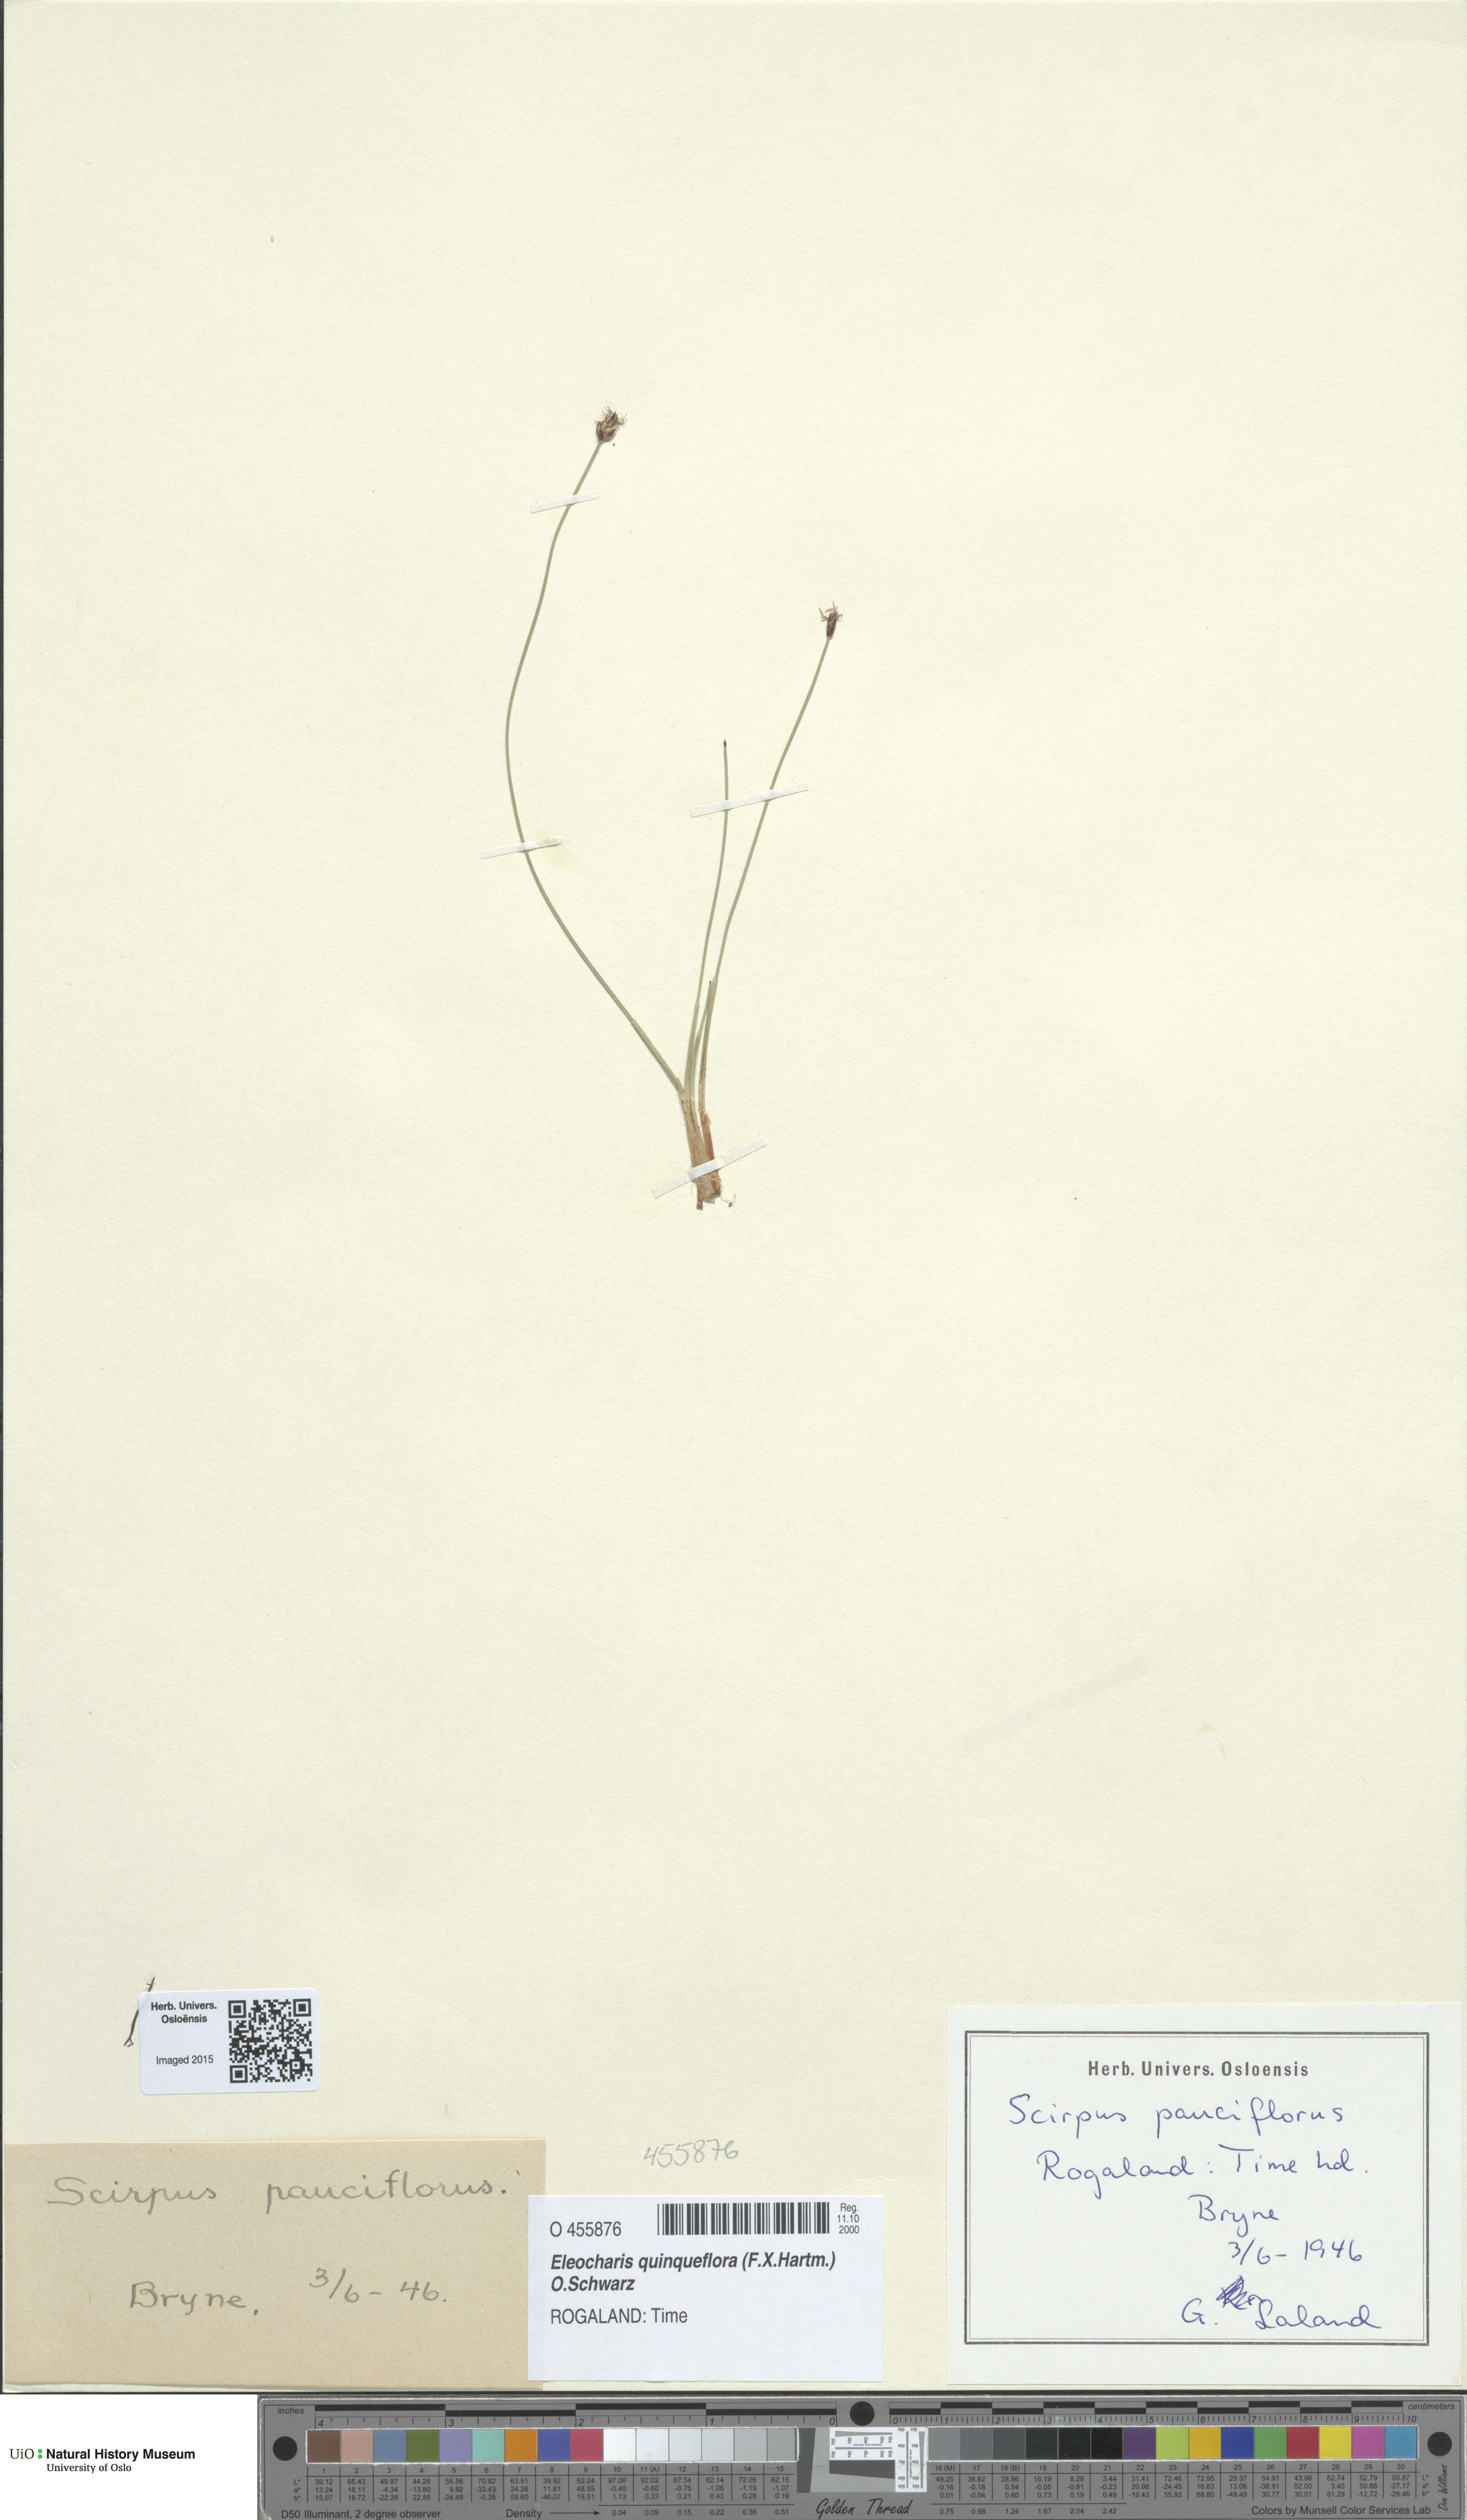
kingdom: Plantae
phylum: Tracheophyta
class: Liliopsida
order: Poales
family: Cyperaceae
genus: Eleocharis
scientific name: Eleocharis quinqueflora
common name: Few-flowered spike-rush
